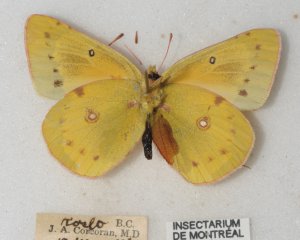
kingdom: Animalia
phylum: Arthropoda
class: Insecta
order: Lepidoptera
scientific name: Lepidoptera
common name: Butterflies
